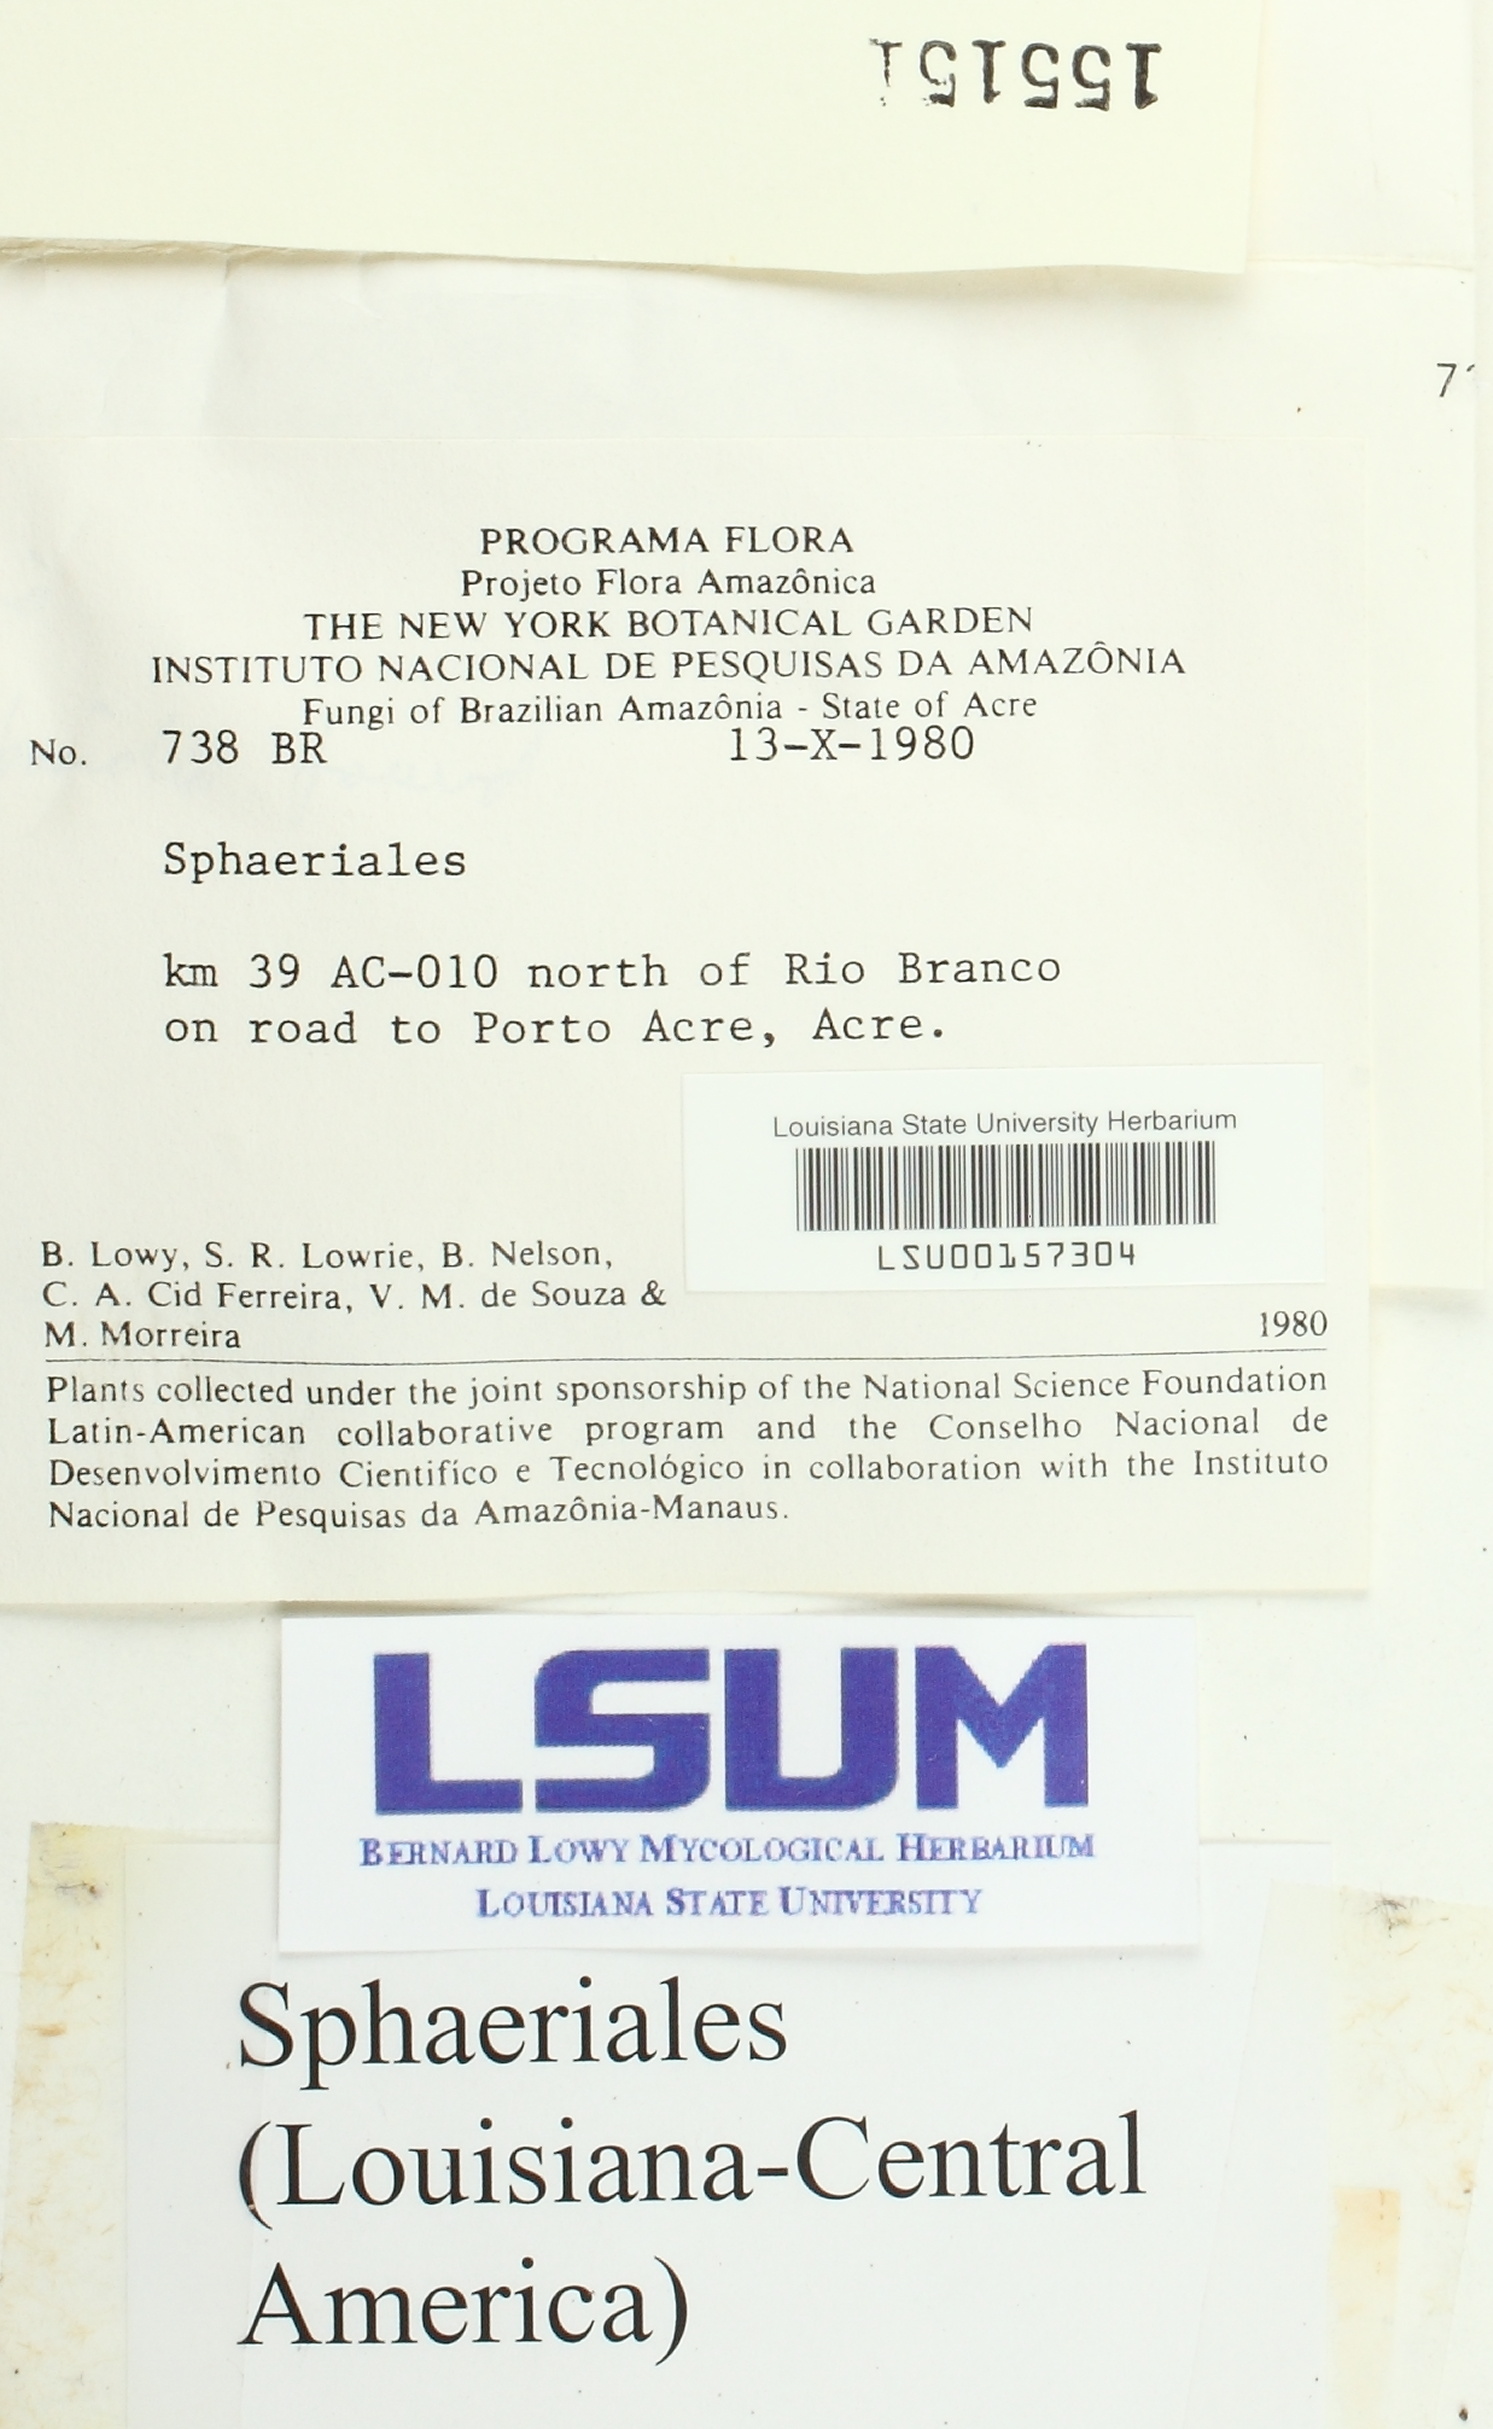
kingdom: Fungi
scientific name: Fungi
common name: Fungi
